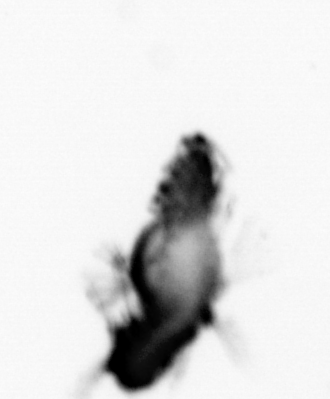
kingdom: Animalia
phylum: Annelida
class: Polychaeta
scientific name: Polychaeta
